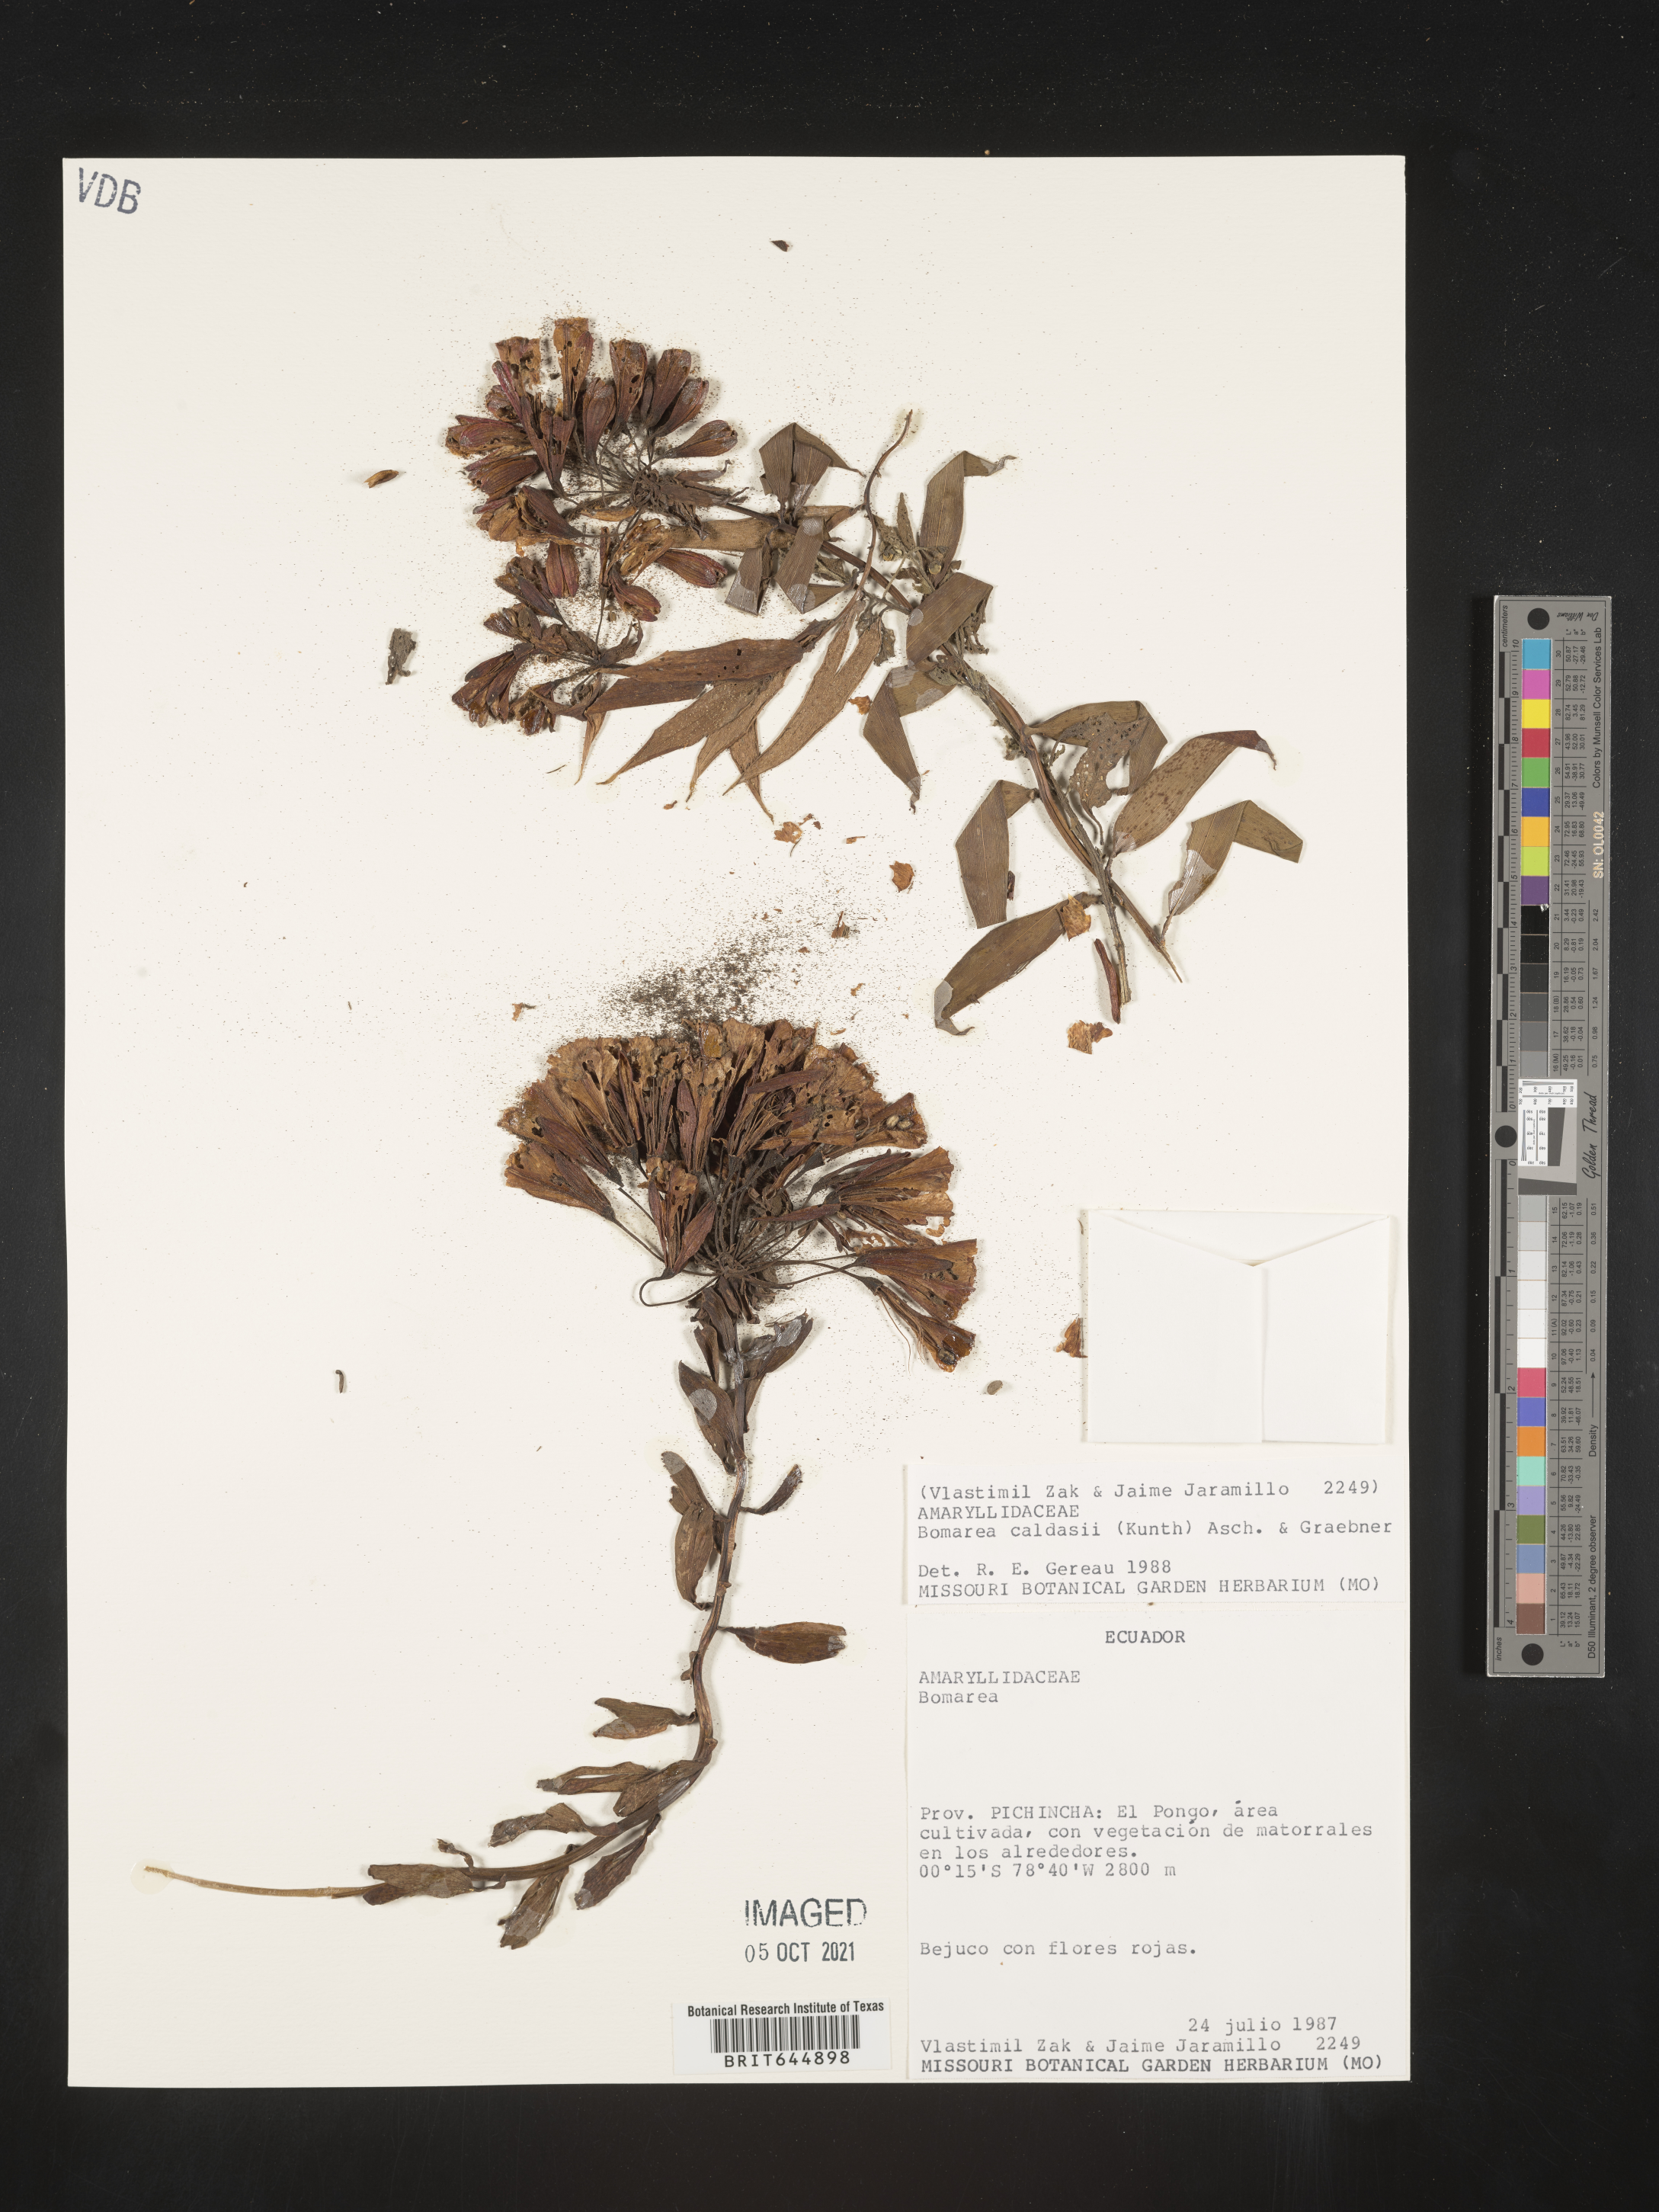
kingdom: Plantae
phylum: Tracheophyta
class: Liliopsida
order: Liliales
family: Alstroemeriaceae
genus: Bomarea
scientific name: Bomarea multiflora
